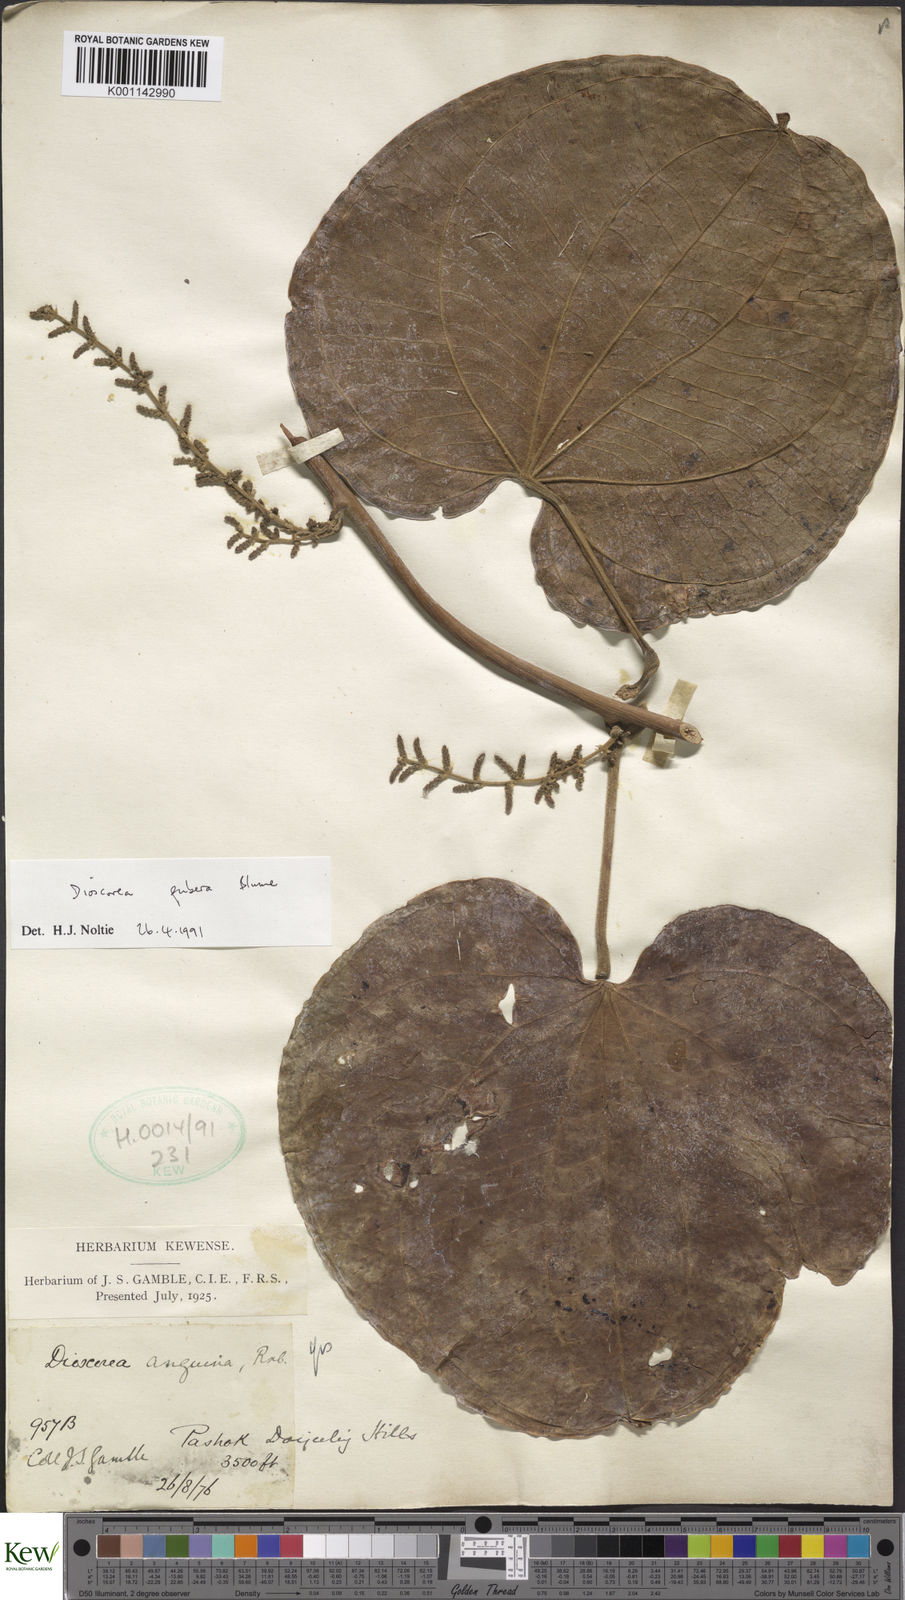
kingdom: Plantae
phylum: Tracheophyta
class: Liliopsida
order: Dioscoreales
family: Dioscoreaceae
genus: Dioscorea
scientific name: Dioscorea pubera
